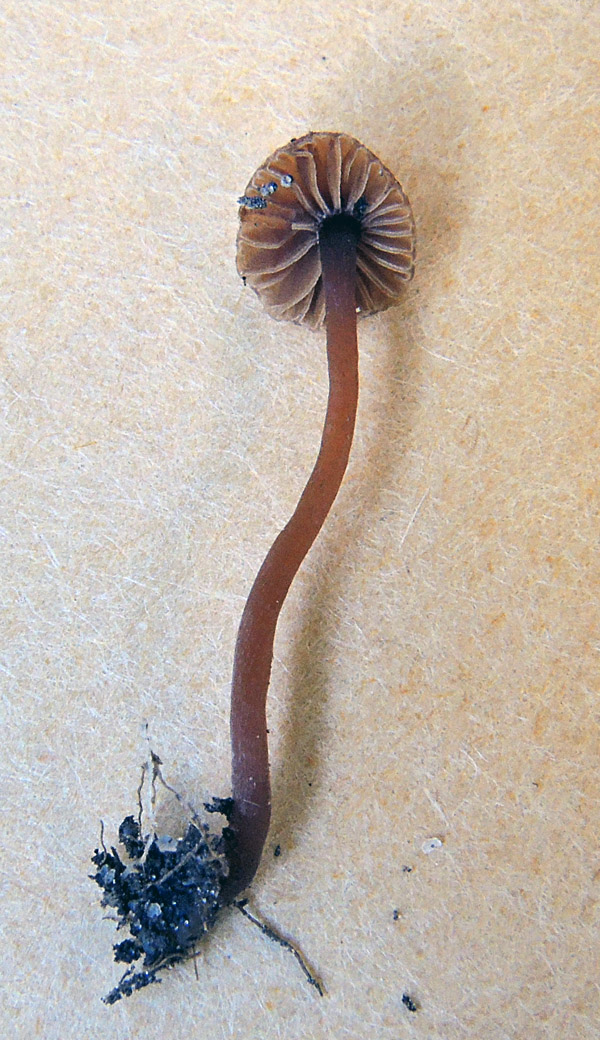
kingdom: Fungi
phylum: Basidiomycota
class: Agaricomycetes
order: Agaricales
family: Crassisporiaceae
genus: Romagnesiella
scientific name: Romagnesiella clavus
